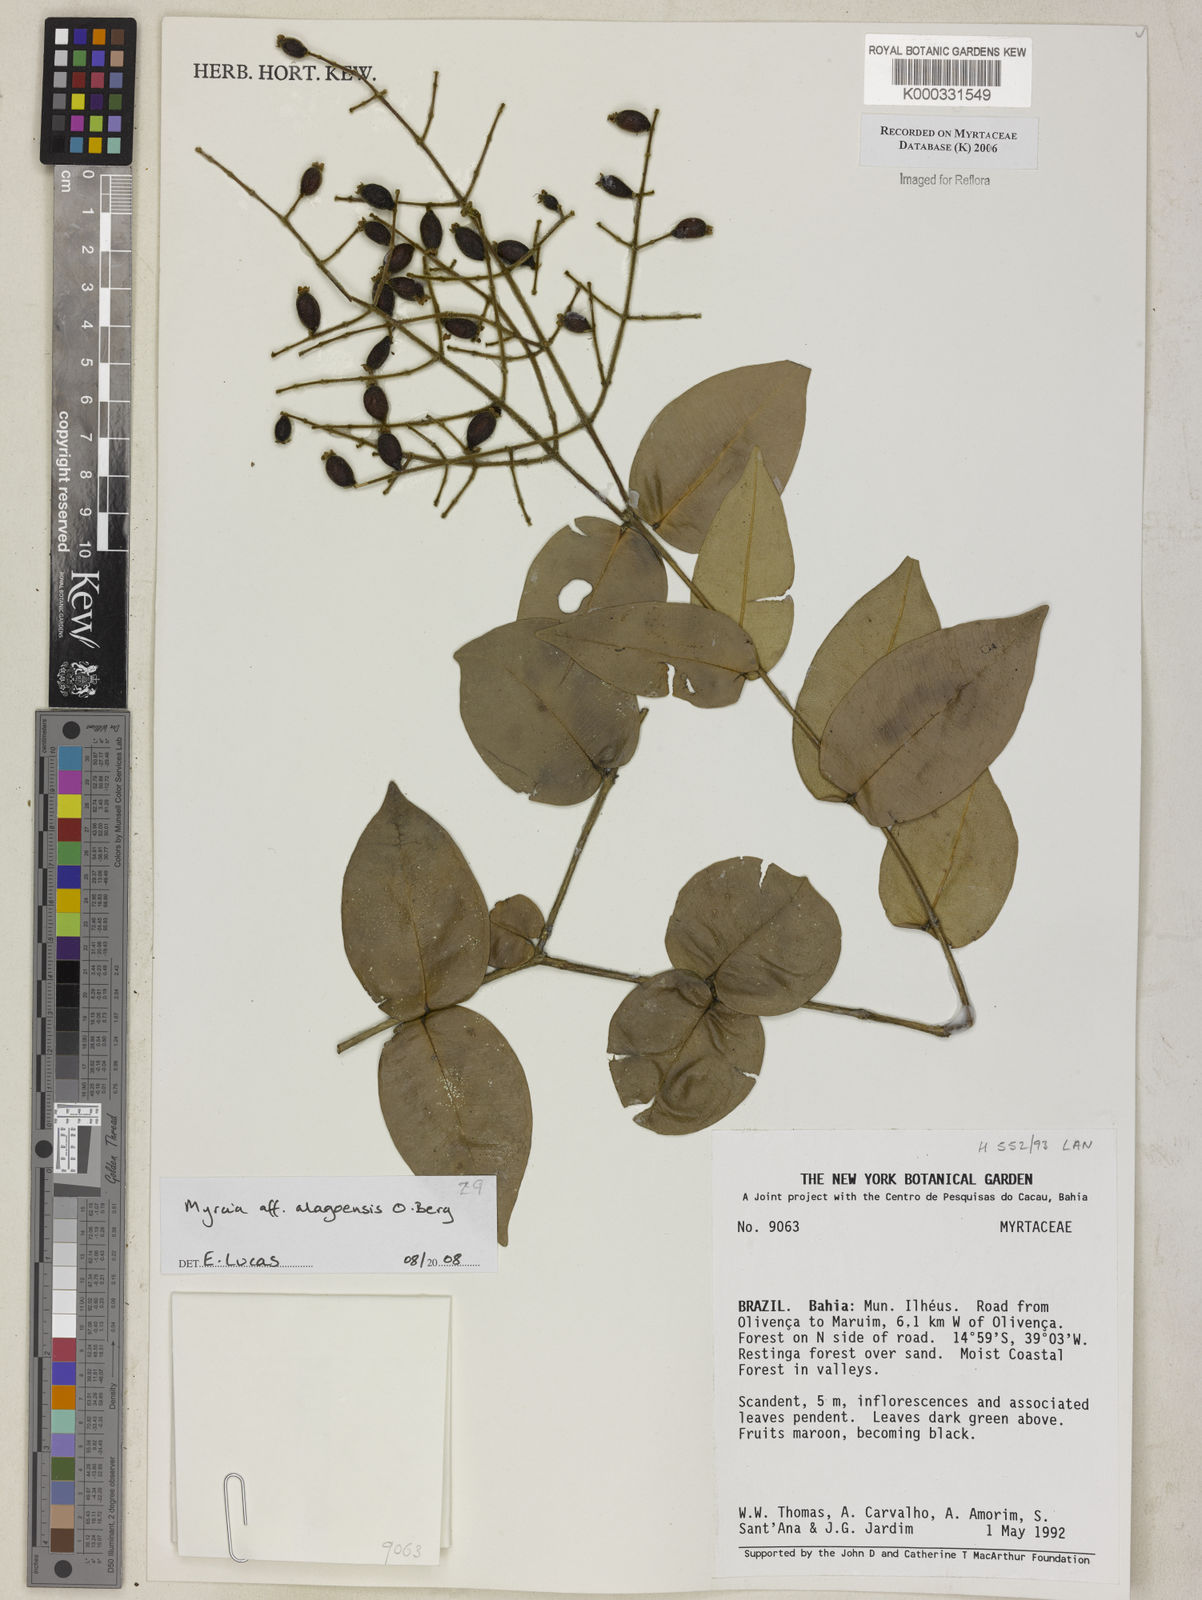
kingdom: Plantae
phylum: Tracheophyta
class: Magnoliopsida
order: Myrtales
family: Myrtaceae
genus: Myrcia
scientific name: Myrcia
